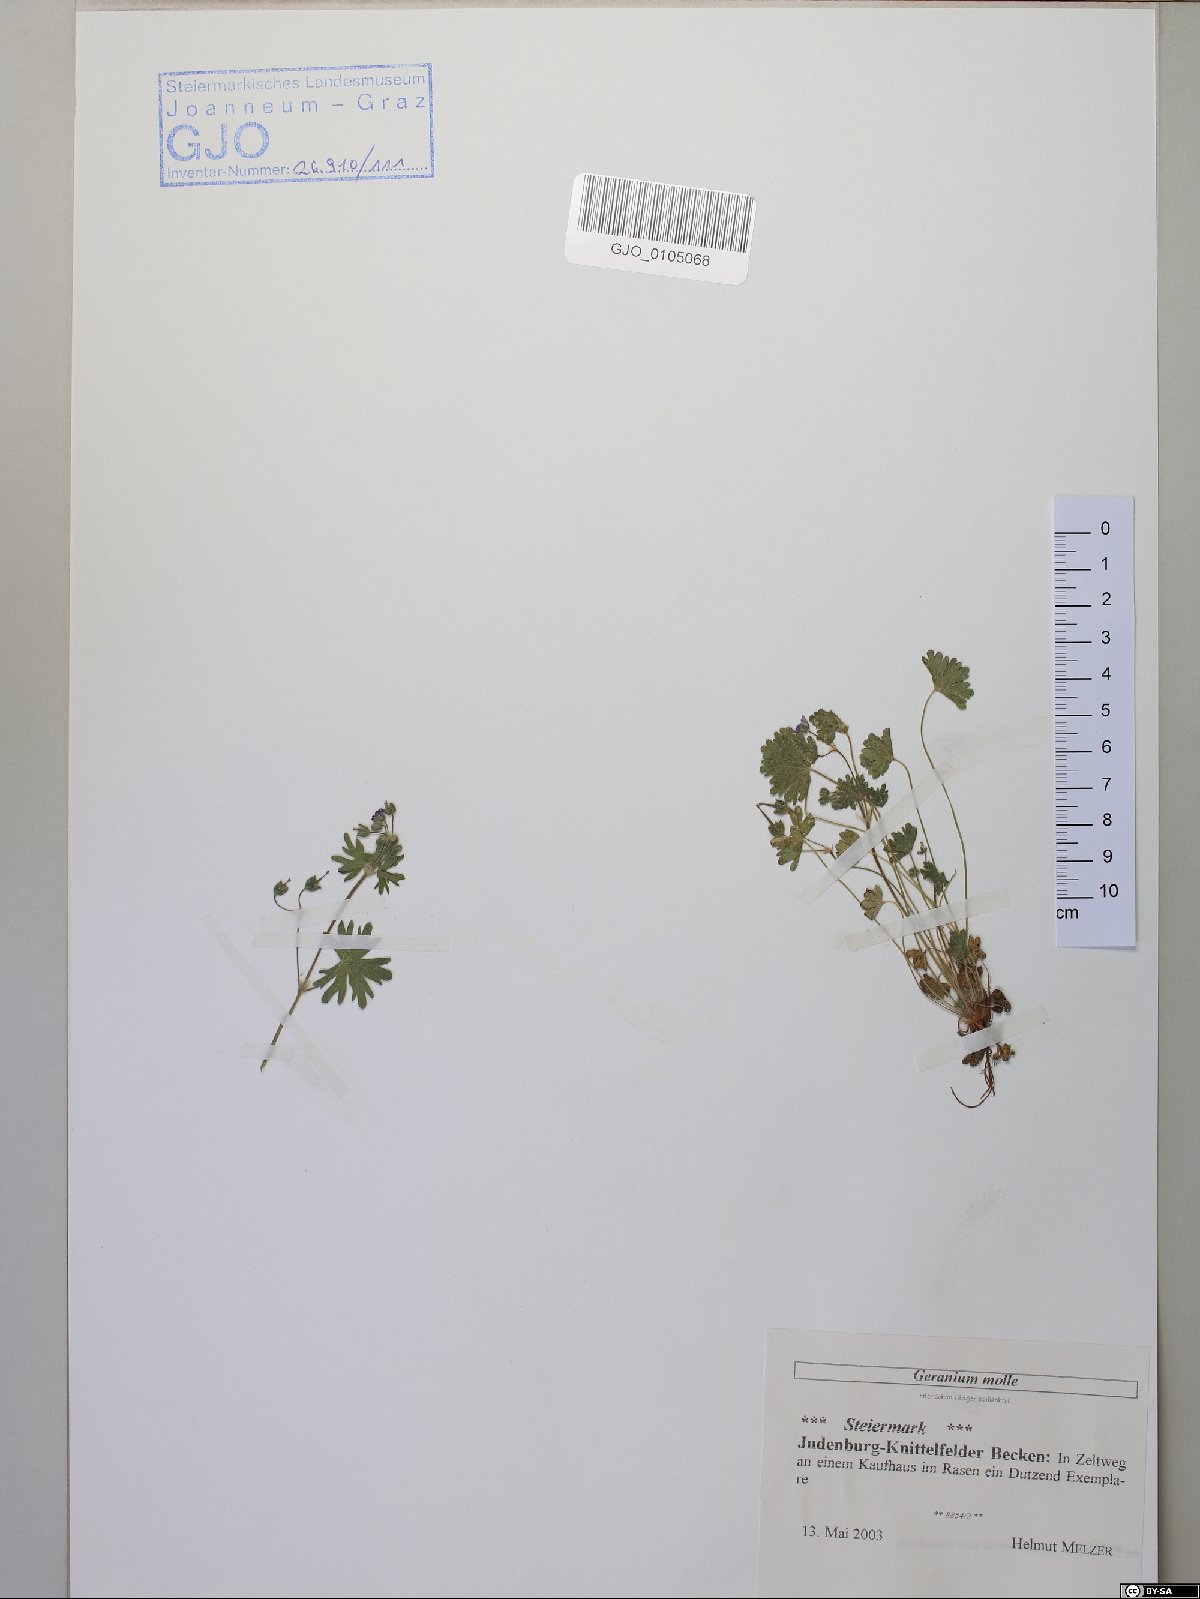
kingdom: Plantae
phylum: Tracheophyta
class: Magnoliopsida
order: Geraniales
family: Geraniaceae
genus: Geranium
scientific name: Geranium molle
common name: Dove's-foot crane's-bill
